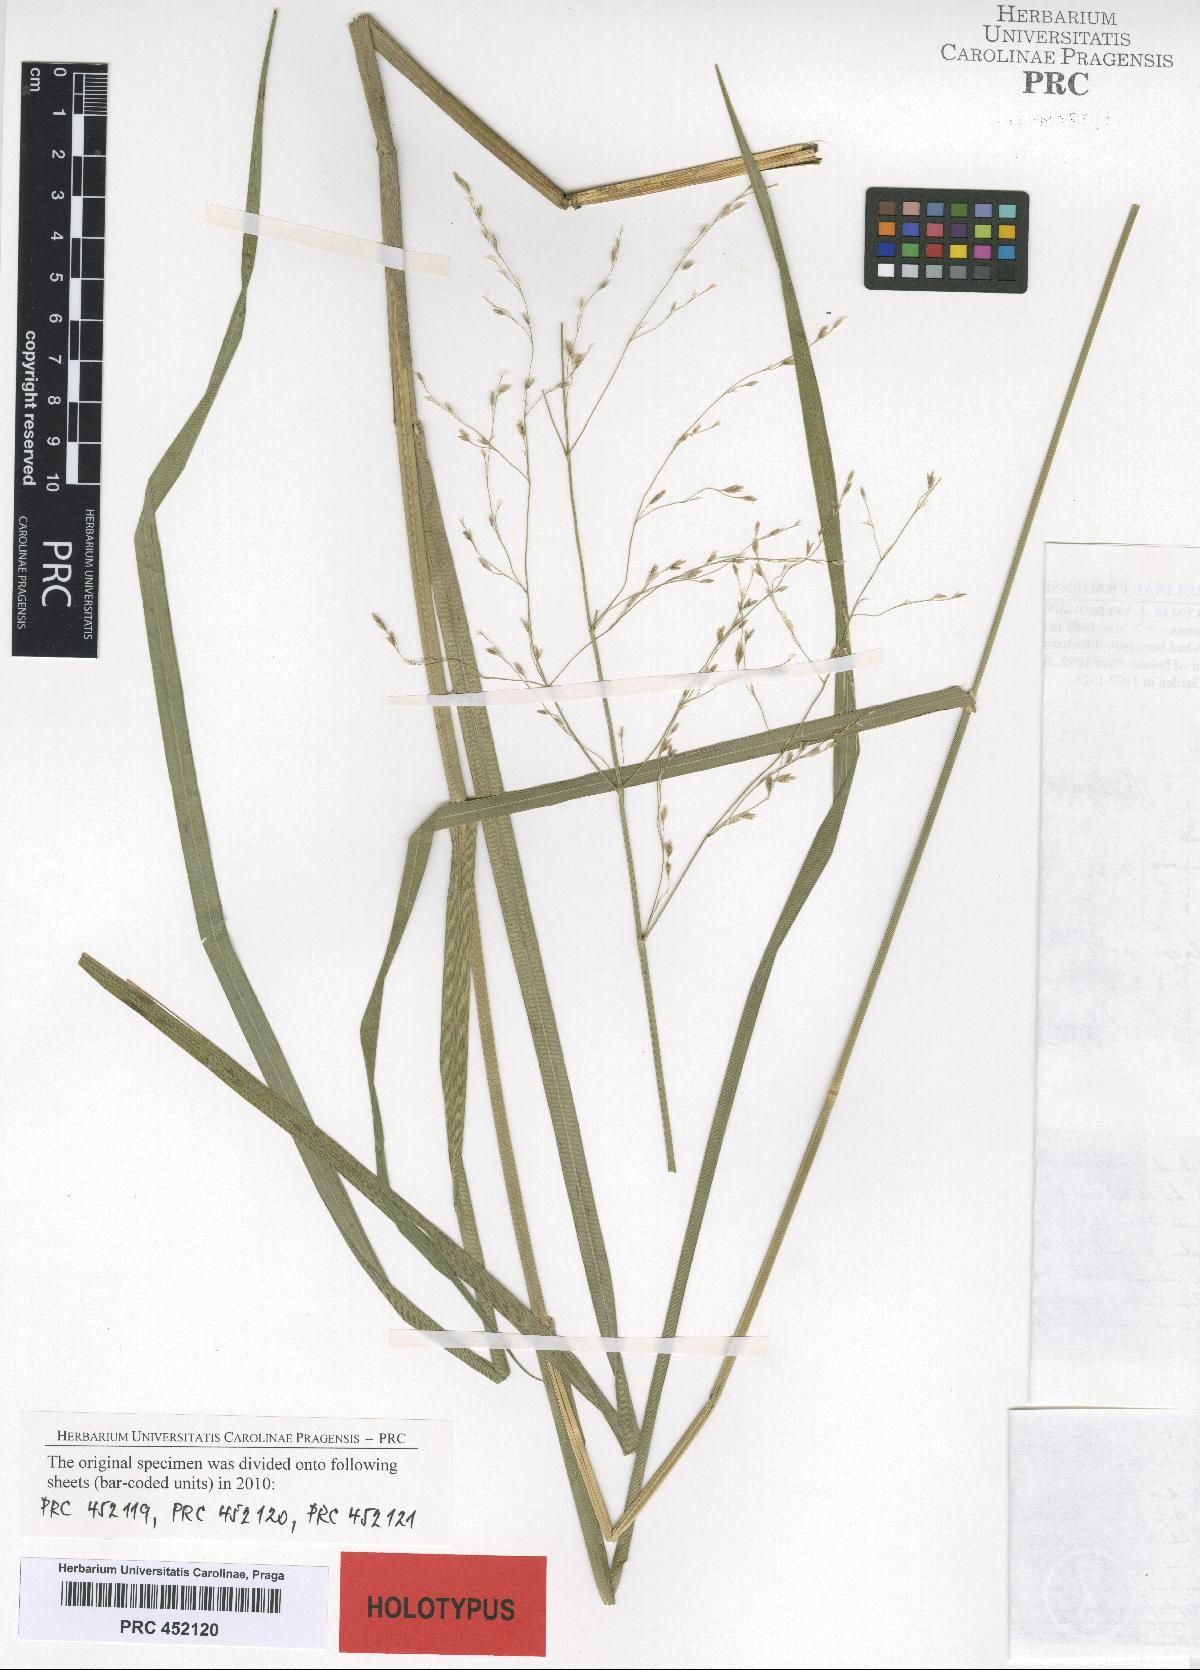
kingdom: Plantae
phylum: Tracheophyta
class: Liliopsida
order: Poales
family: Poaceae
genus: Glyceria
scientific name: Glyceria arundinacea
